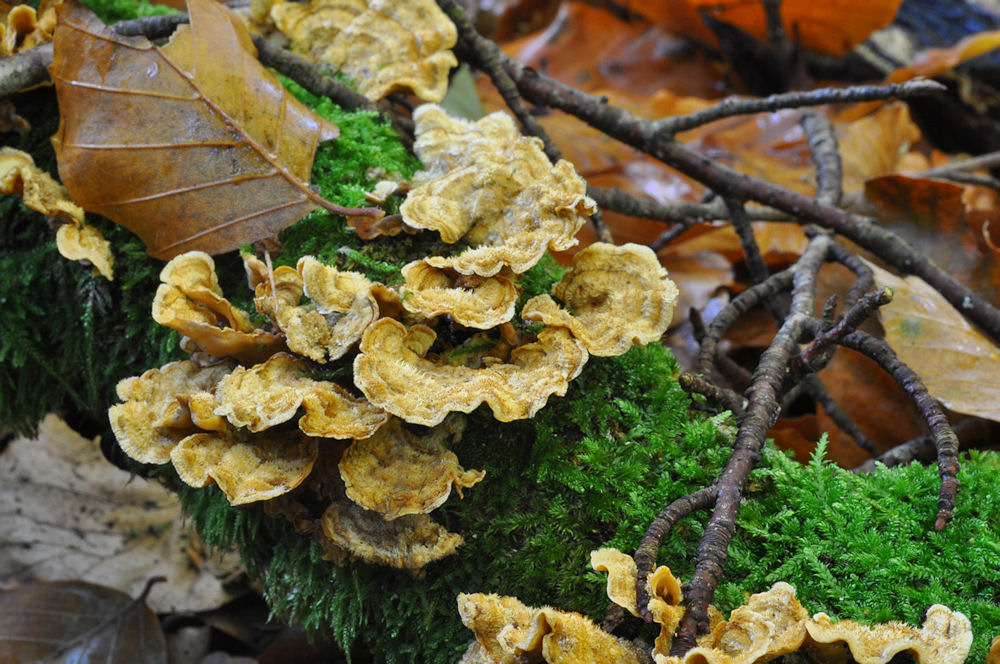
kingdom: Fungi
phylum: Basidiomycota
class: Agaricomycetes
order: Russulales
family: Stereaceae
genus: Stereum
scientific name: Stereum hirsutum
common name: håret lædersvamp
